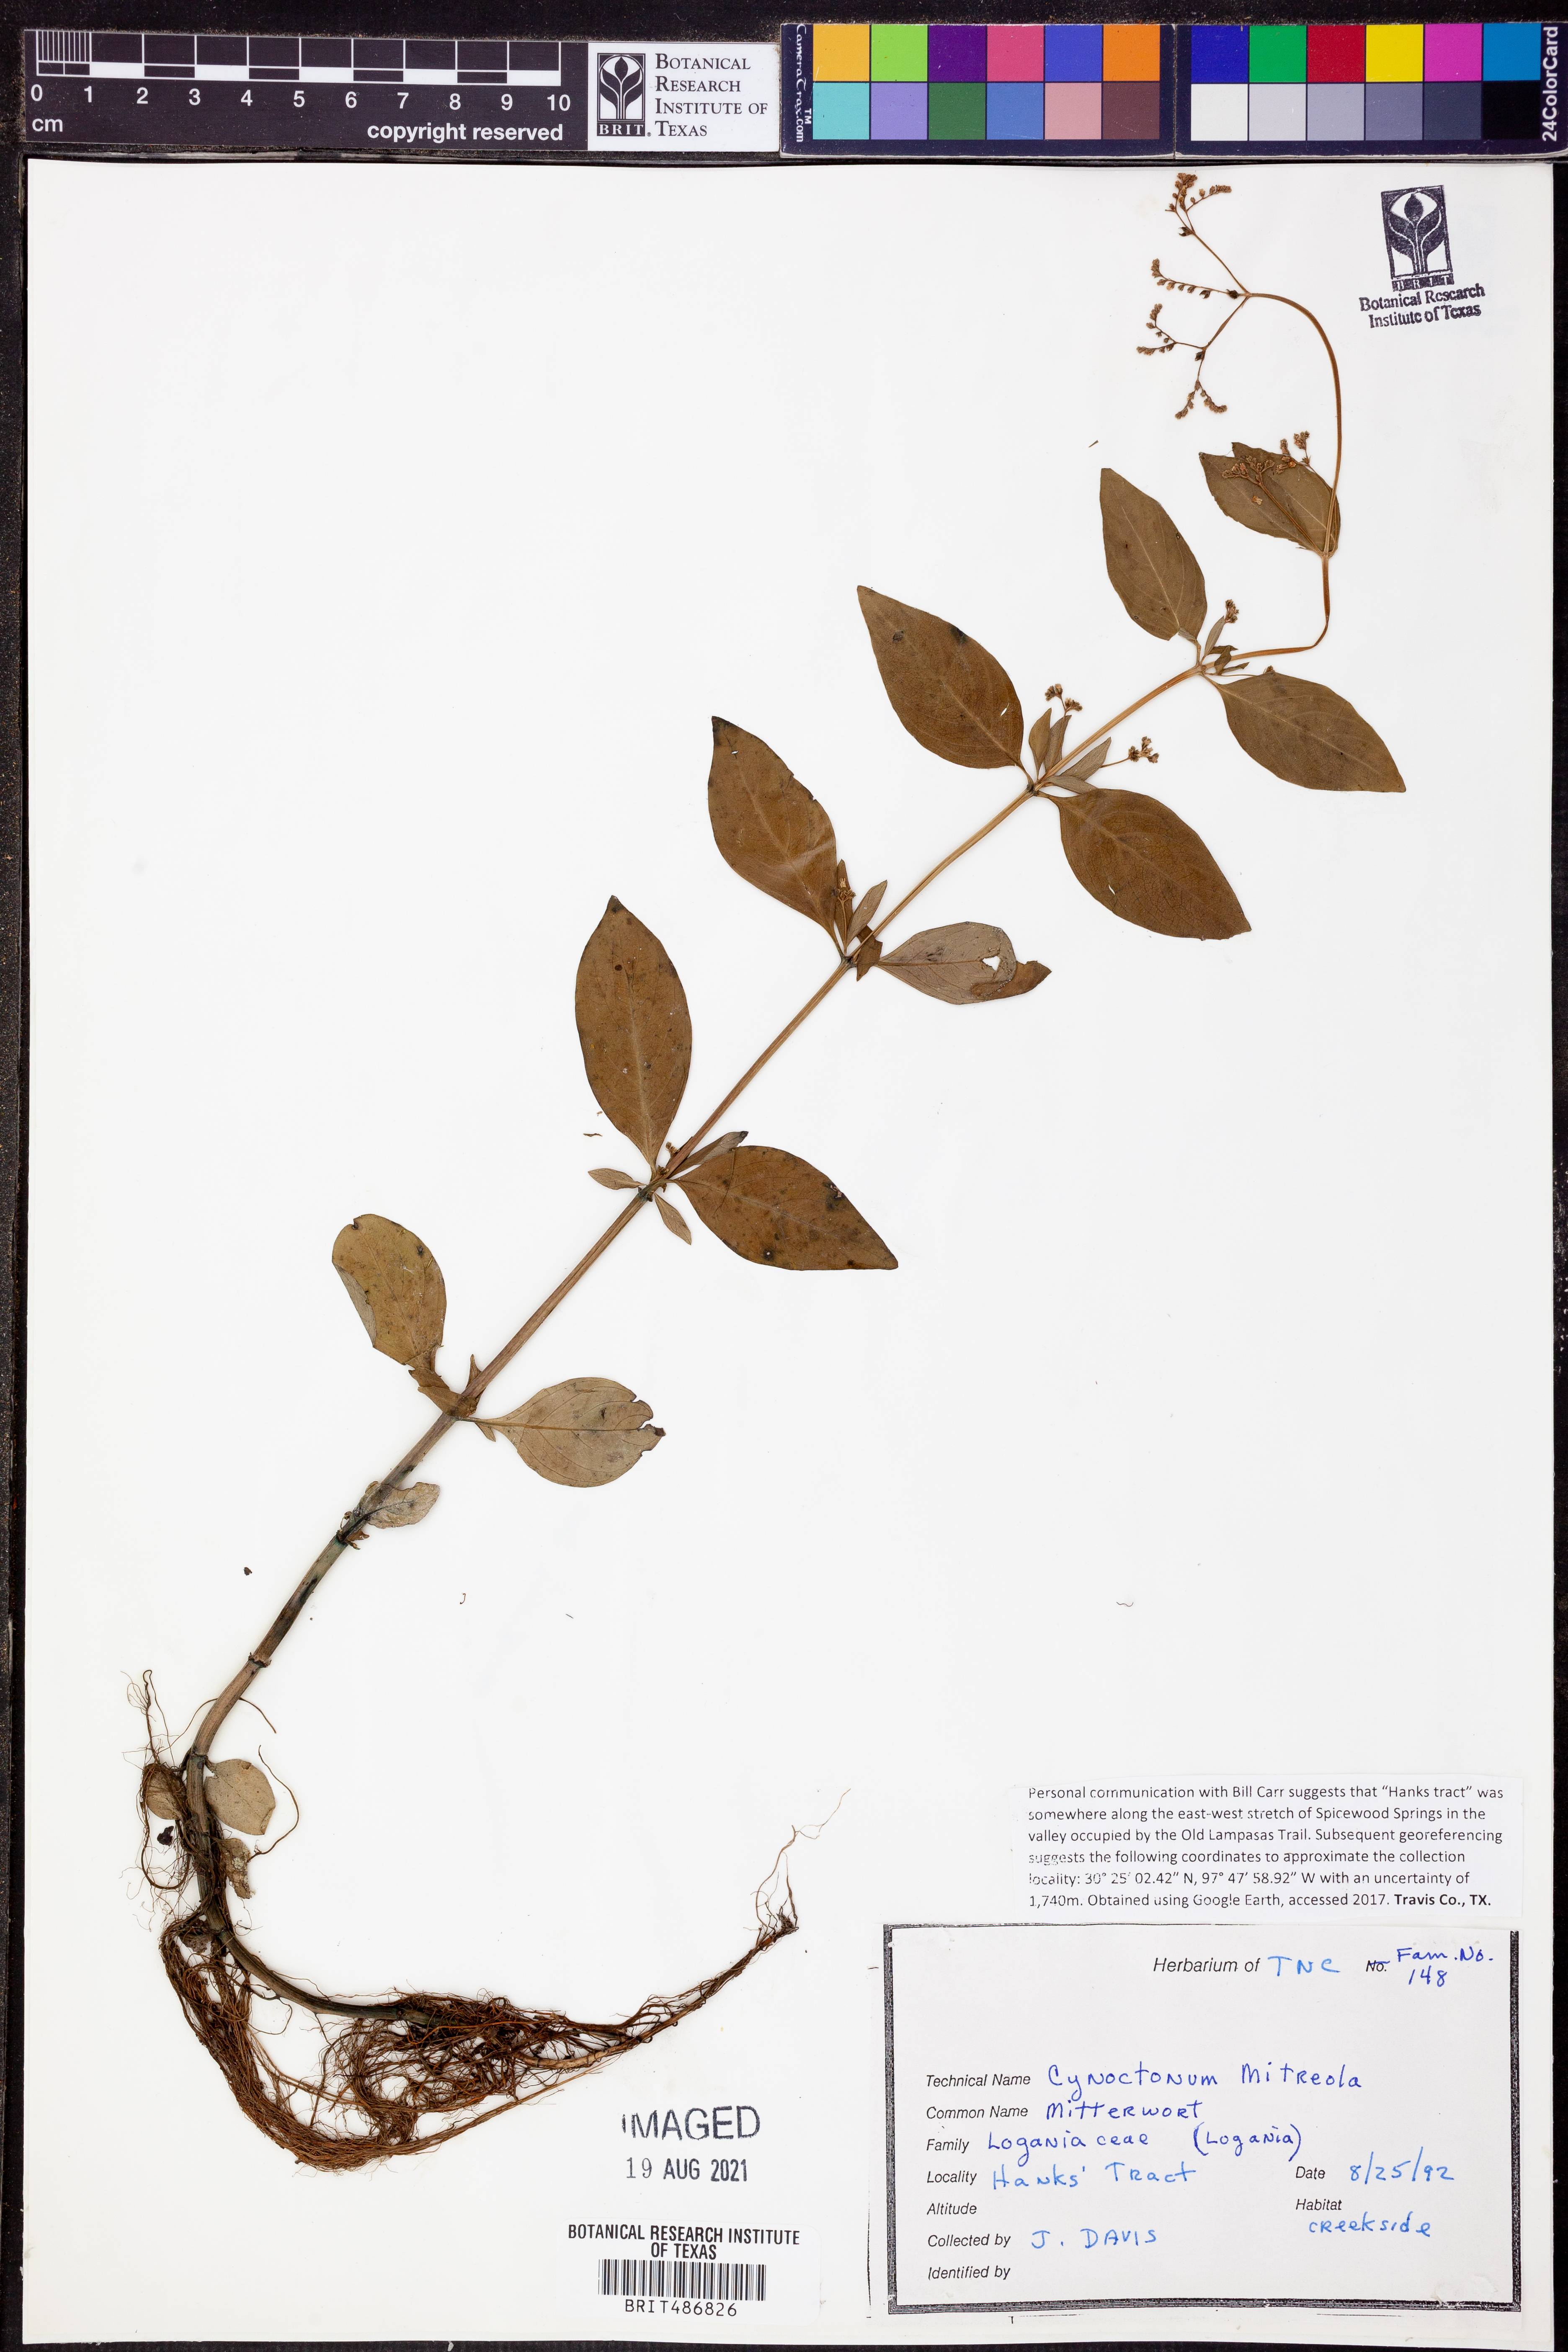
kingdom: Plantae
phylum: Tracheophyta
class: Magnoliopsida
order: Gentianales
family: Loganiaceae
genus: Mitreola
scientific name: Mitreola petiolata
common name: Lax hornpod
